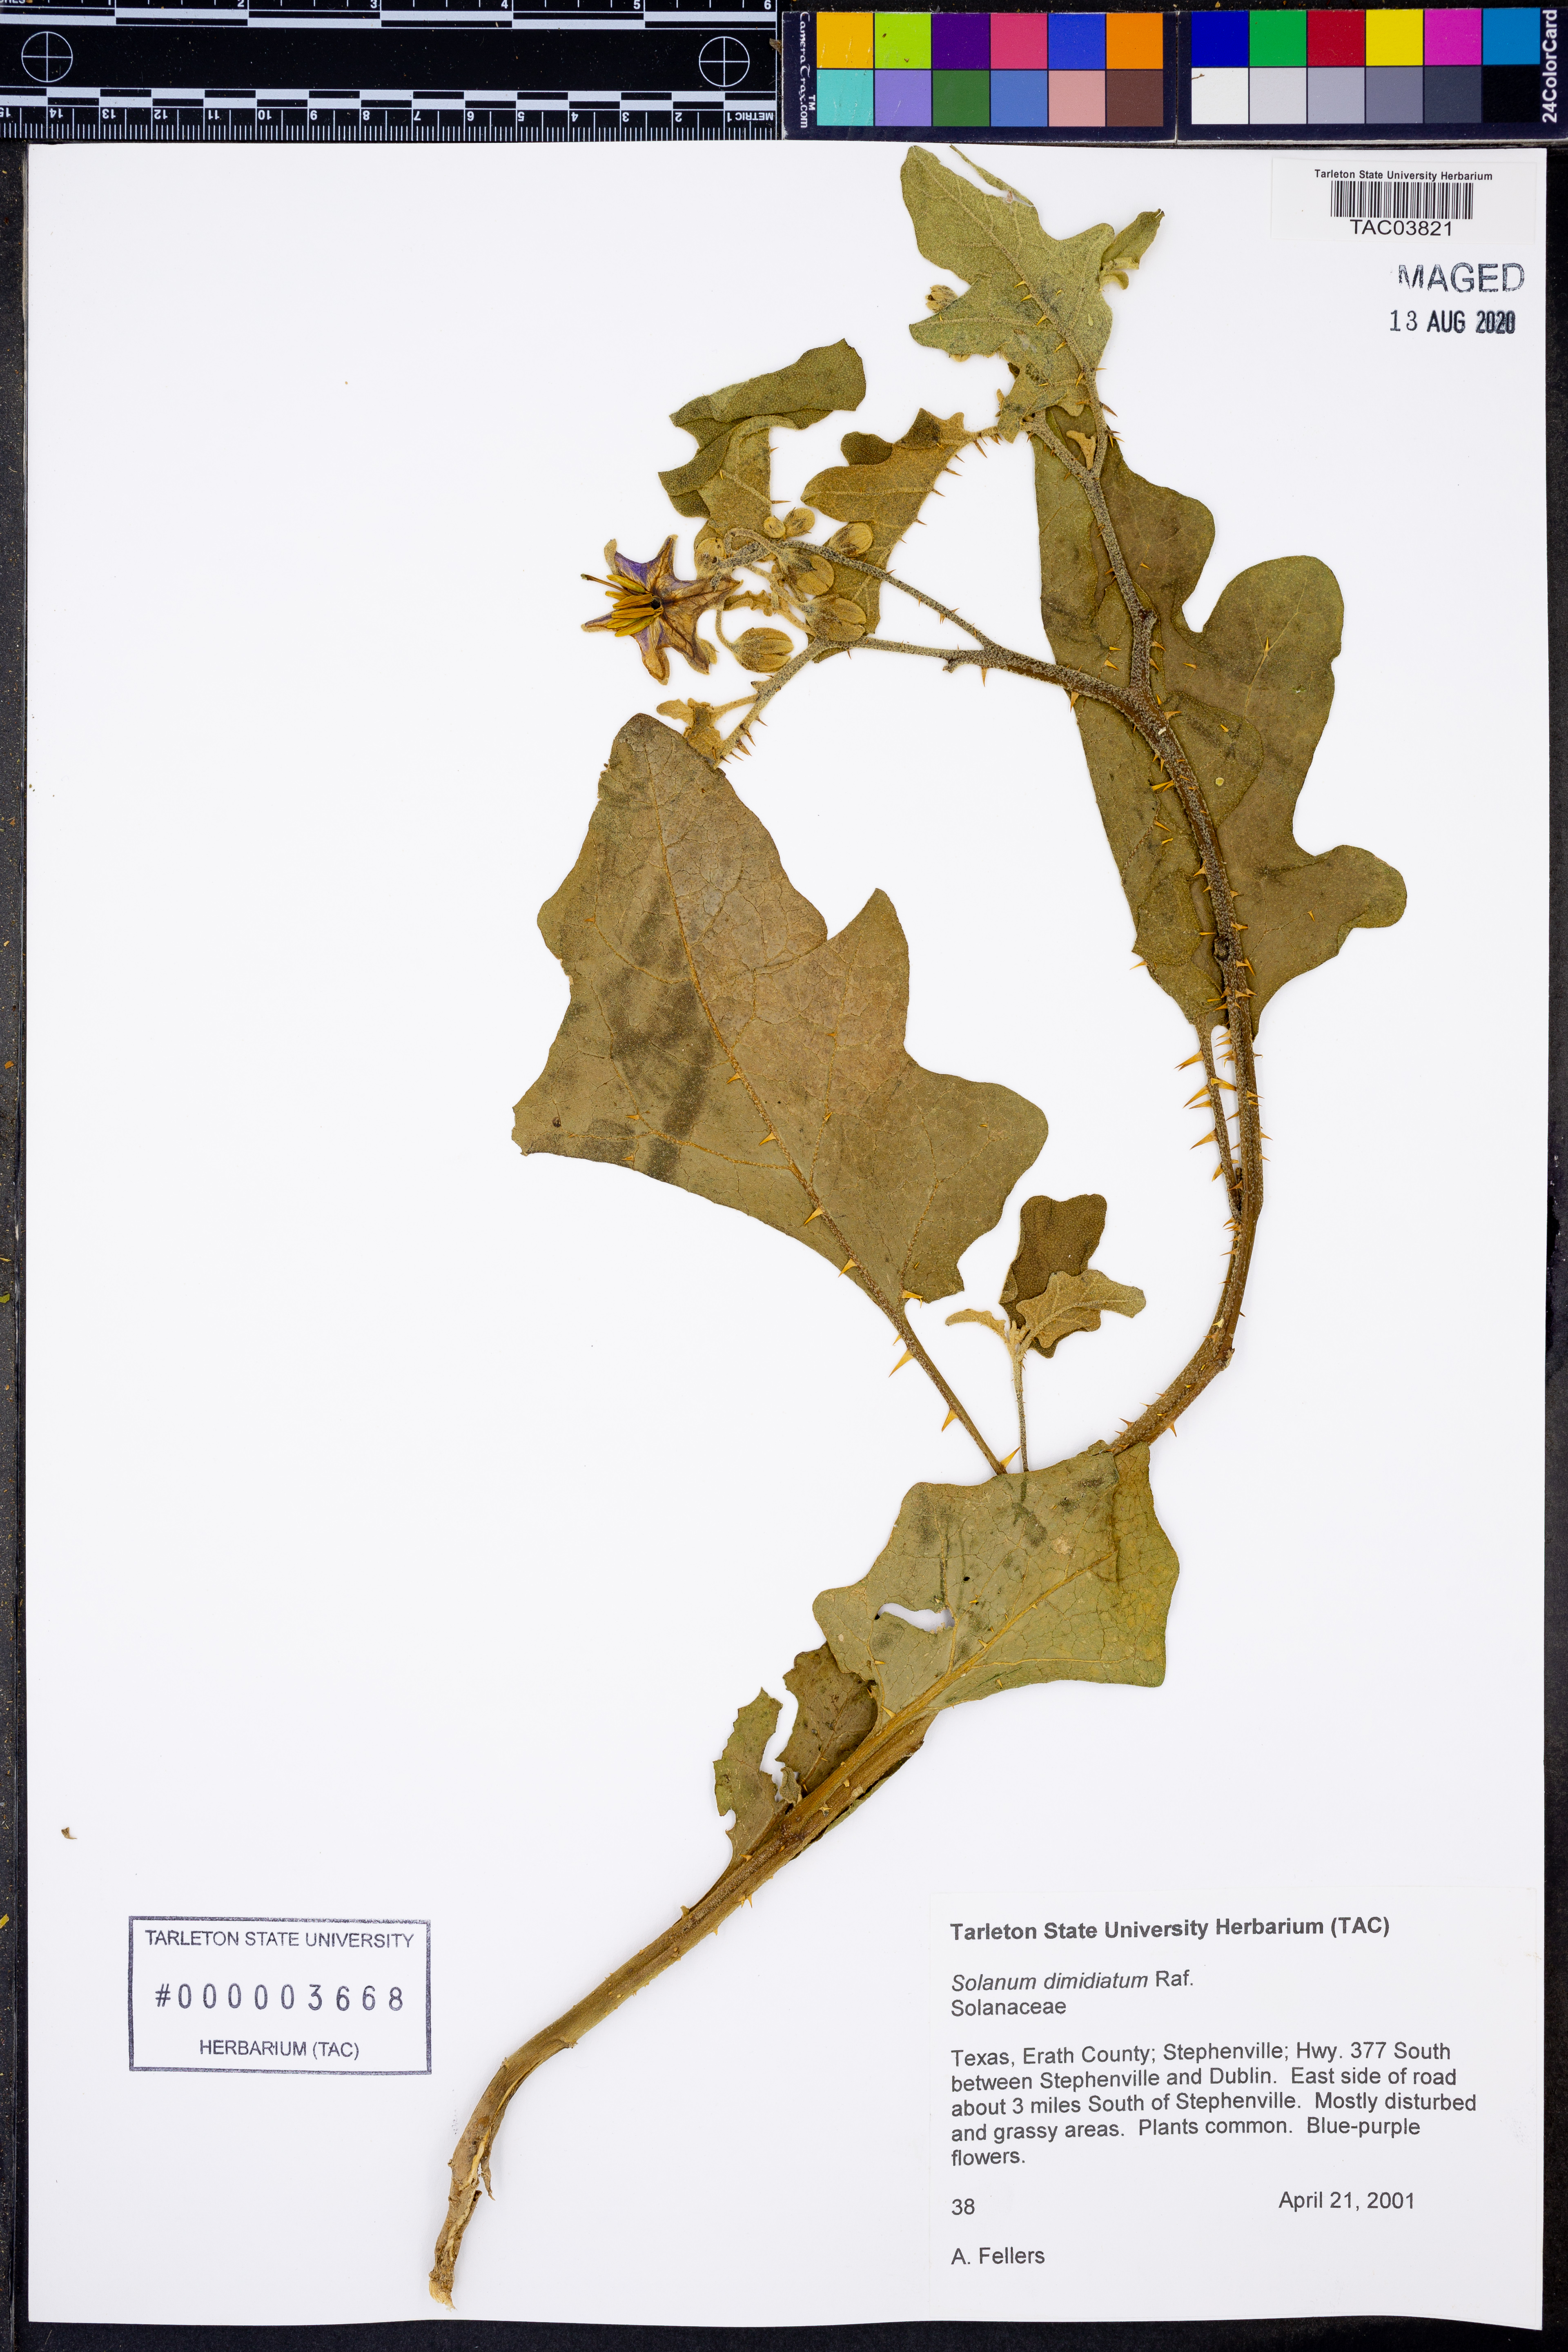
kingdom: Plantae
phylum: Tracheophyta
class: Magnoliopsida
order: Solanales
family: Solanaceae
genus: Solanum
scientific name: Solanum dimidiatum
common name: Carolina horse-nettle
